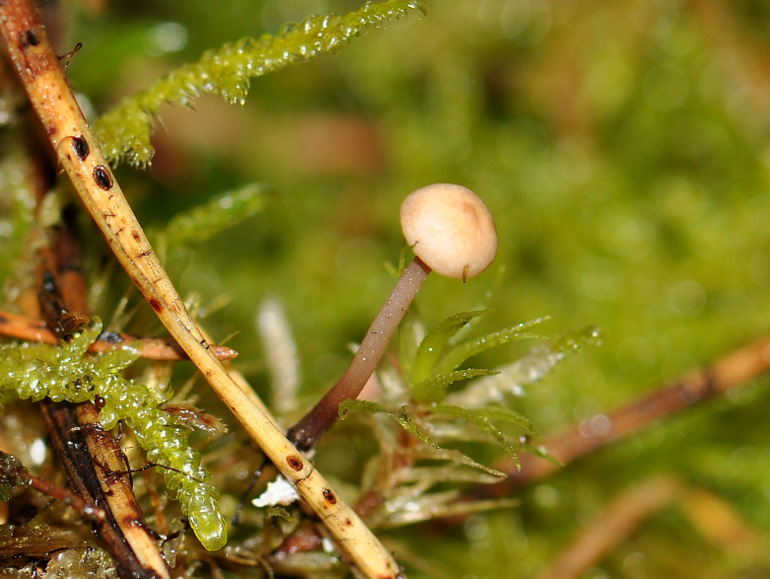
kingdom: Fungi
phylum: Basidiomycota
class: Agaricomycetes
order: Agaricales
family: Omphalotaceae
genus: Paragymnopus
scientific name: Paragymnopus perforans
